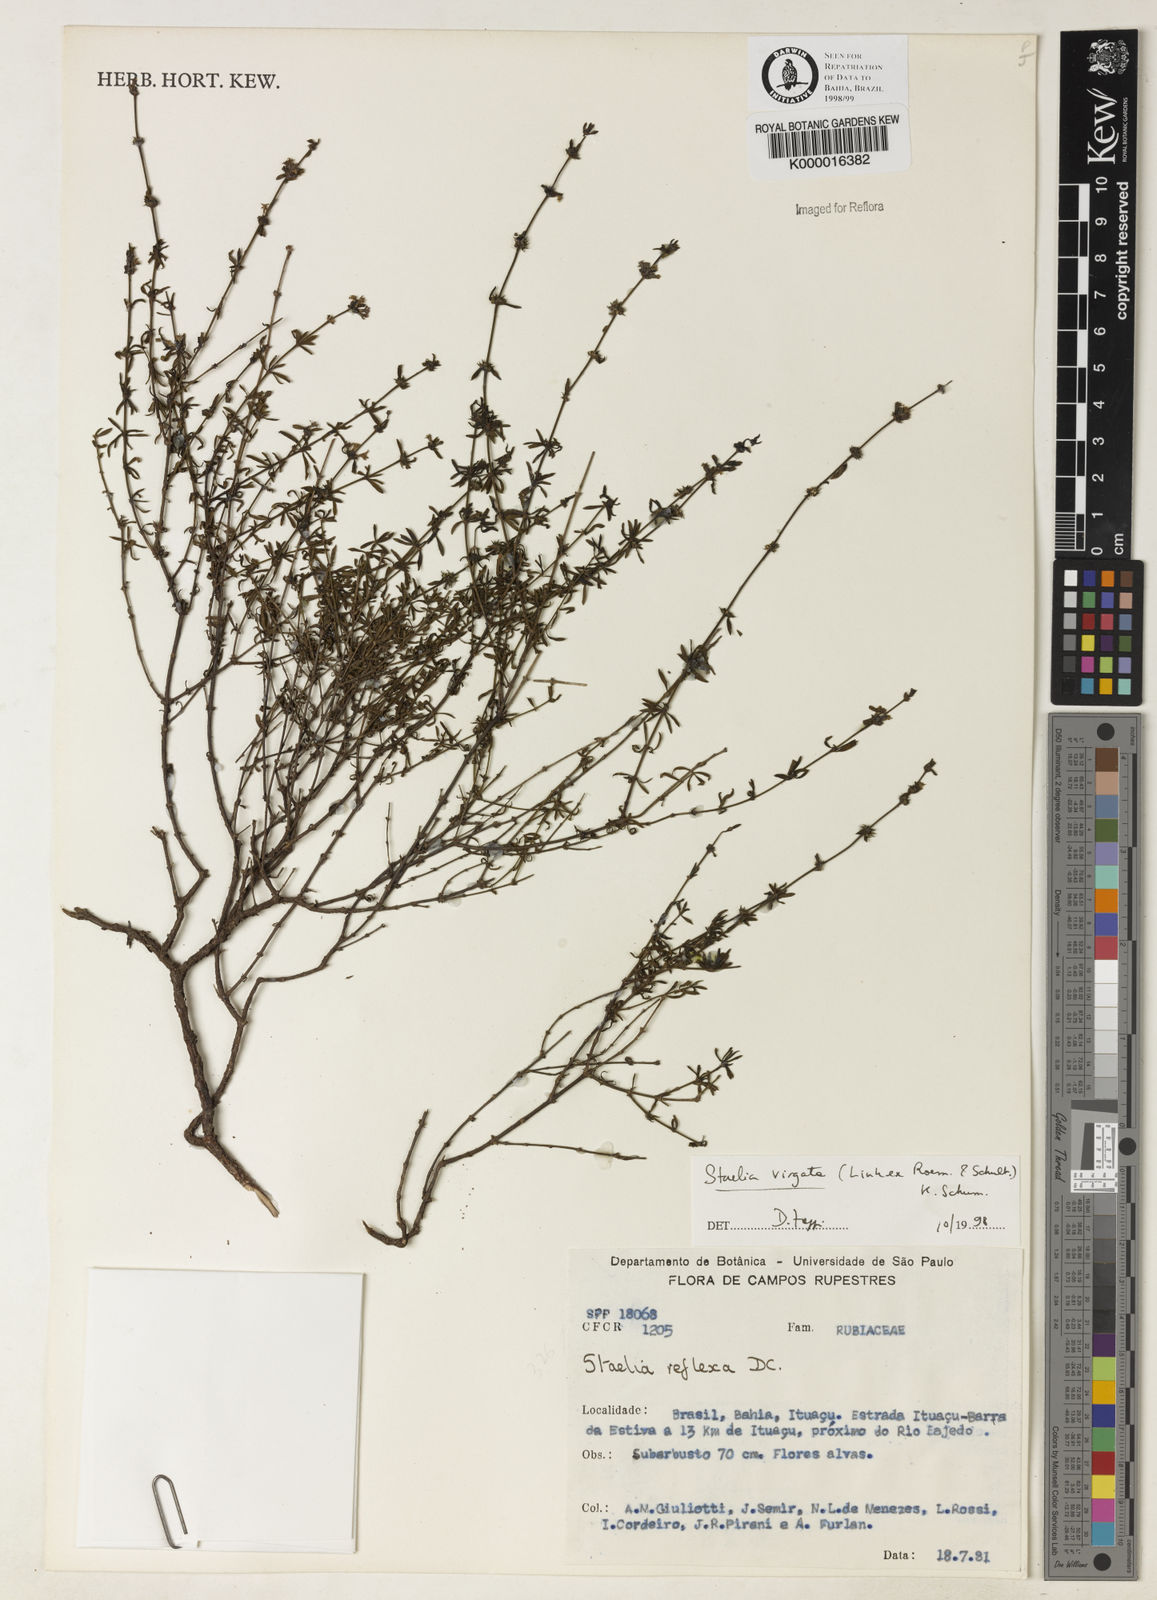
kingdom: Plantae
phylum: Tracheophyta
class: Magnoliopsida
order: Gentianales
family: Rubiaceae
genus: Staelia
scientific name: Staelia virgata
